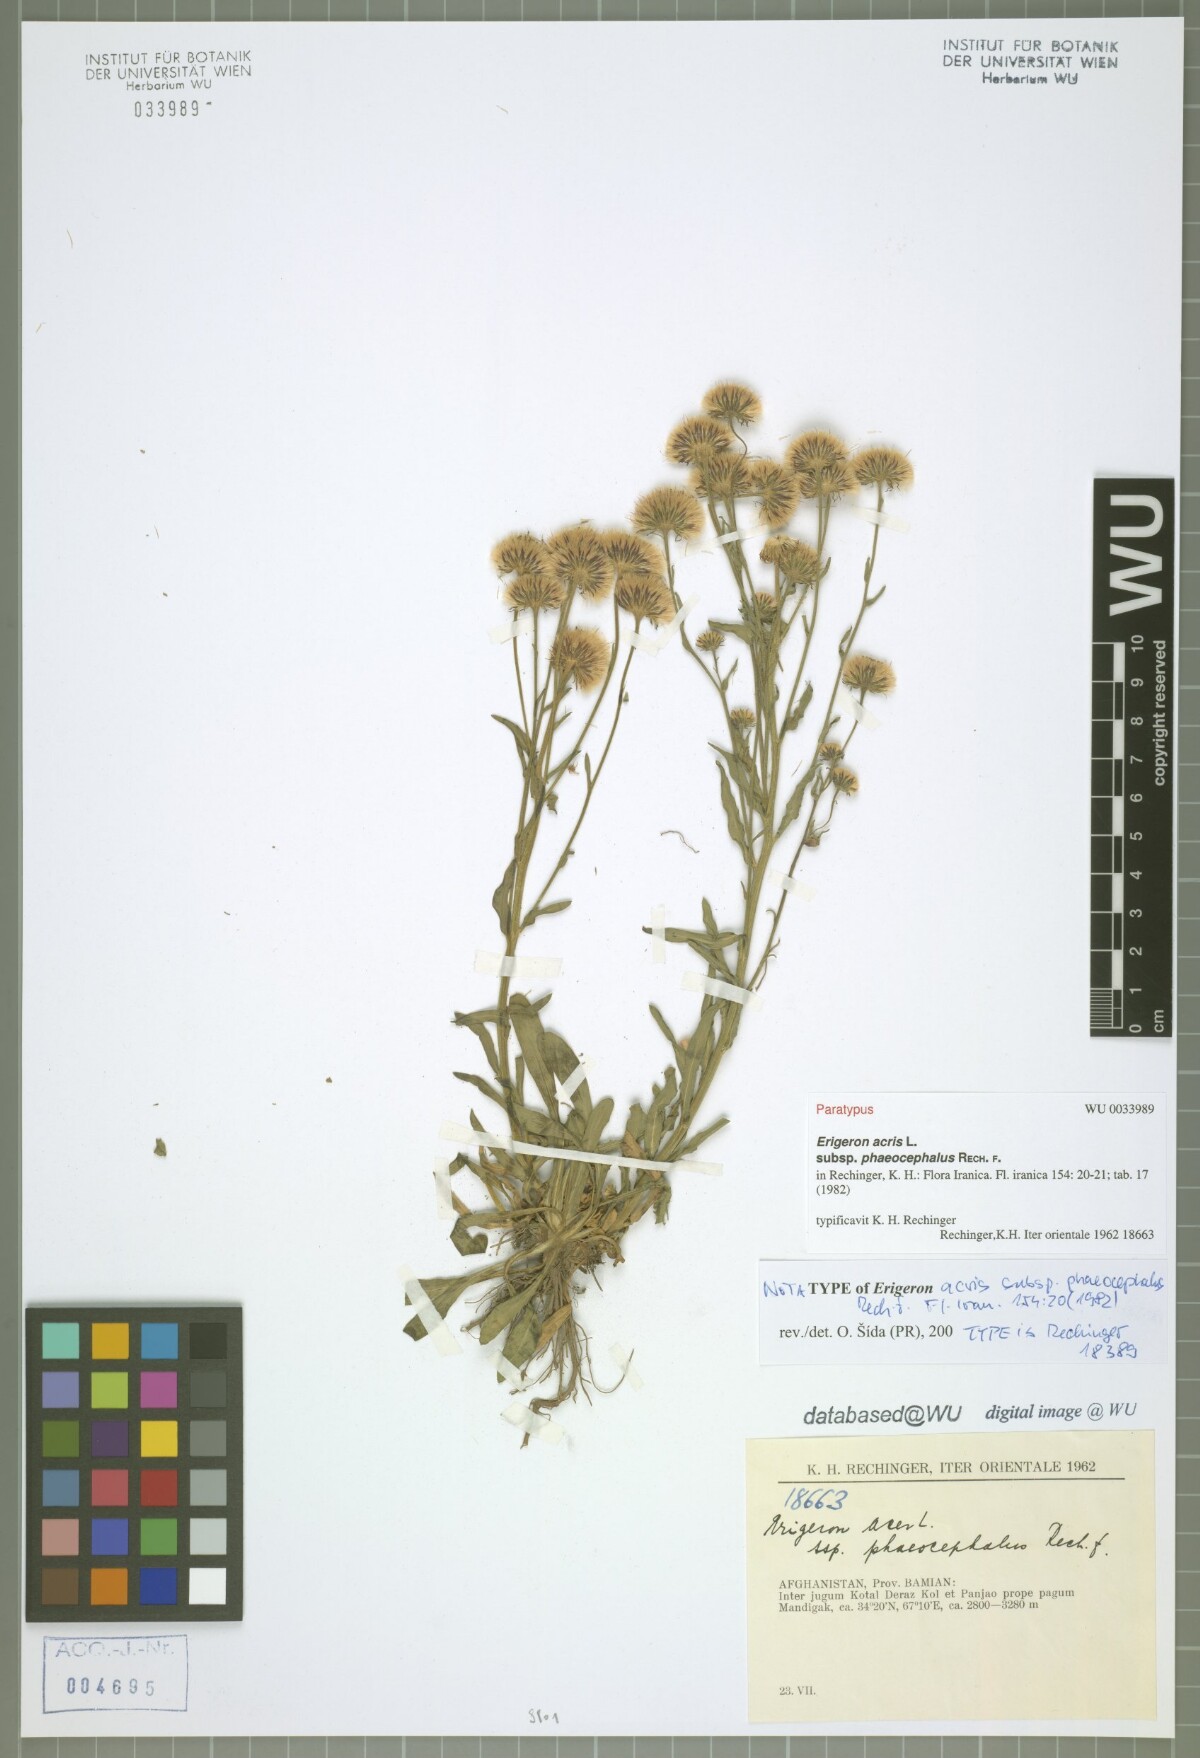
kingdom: Plantae
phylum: Tracheophyta
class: Magnoliopsida
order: Asterales
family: Asteraceae
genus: Erigeron
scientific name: Erigeron acris
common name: Blue fleabane
